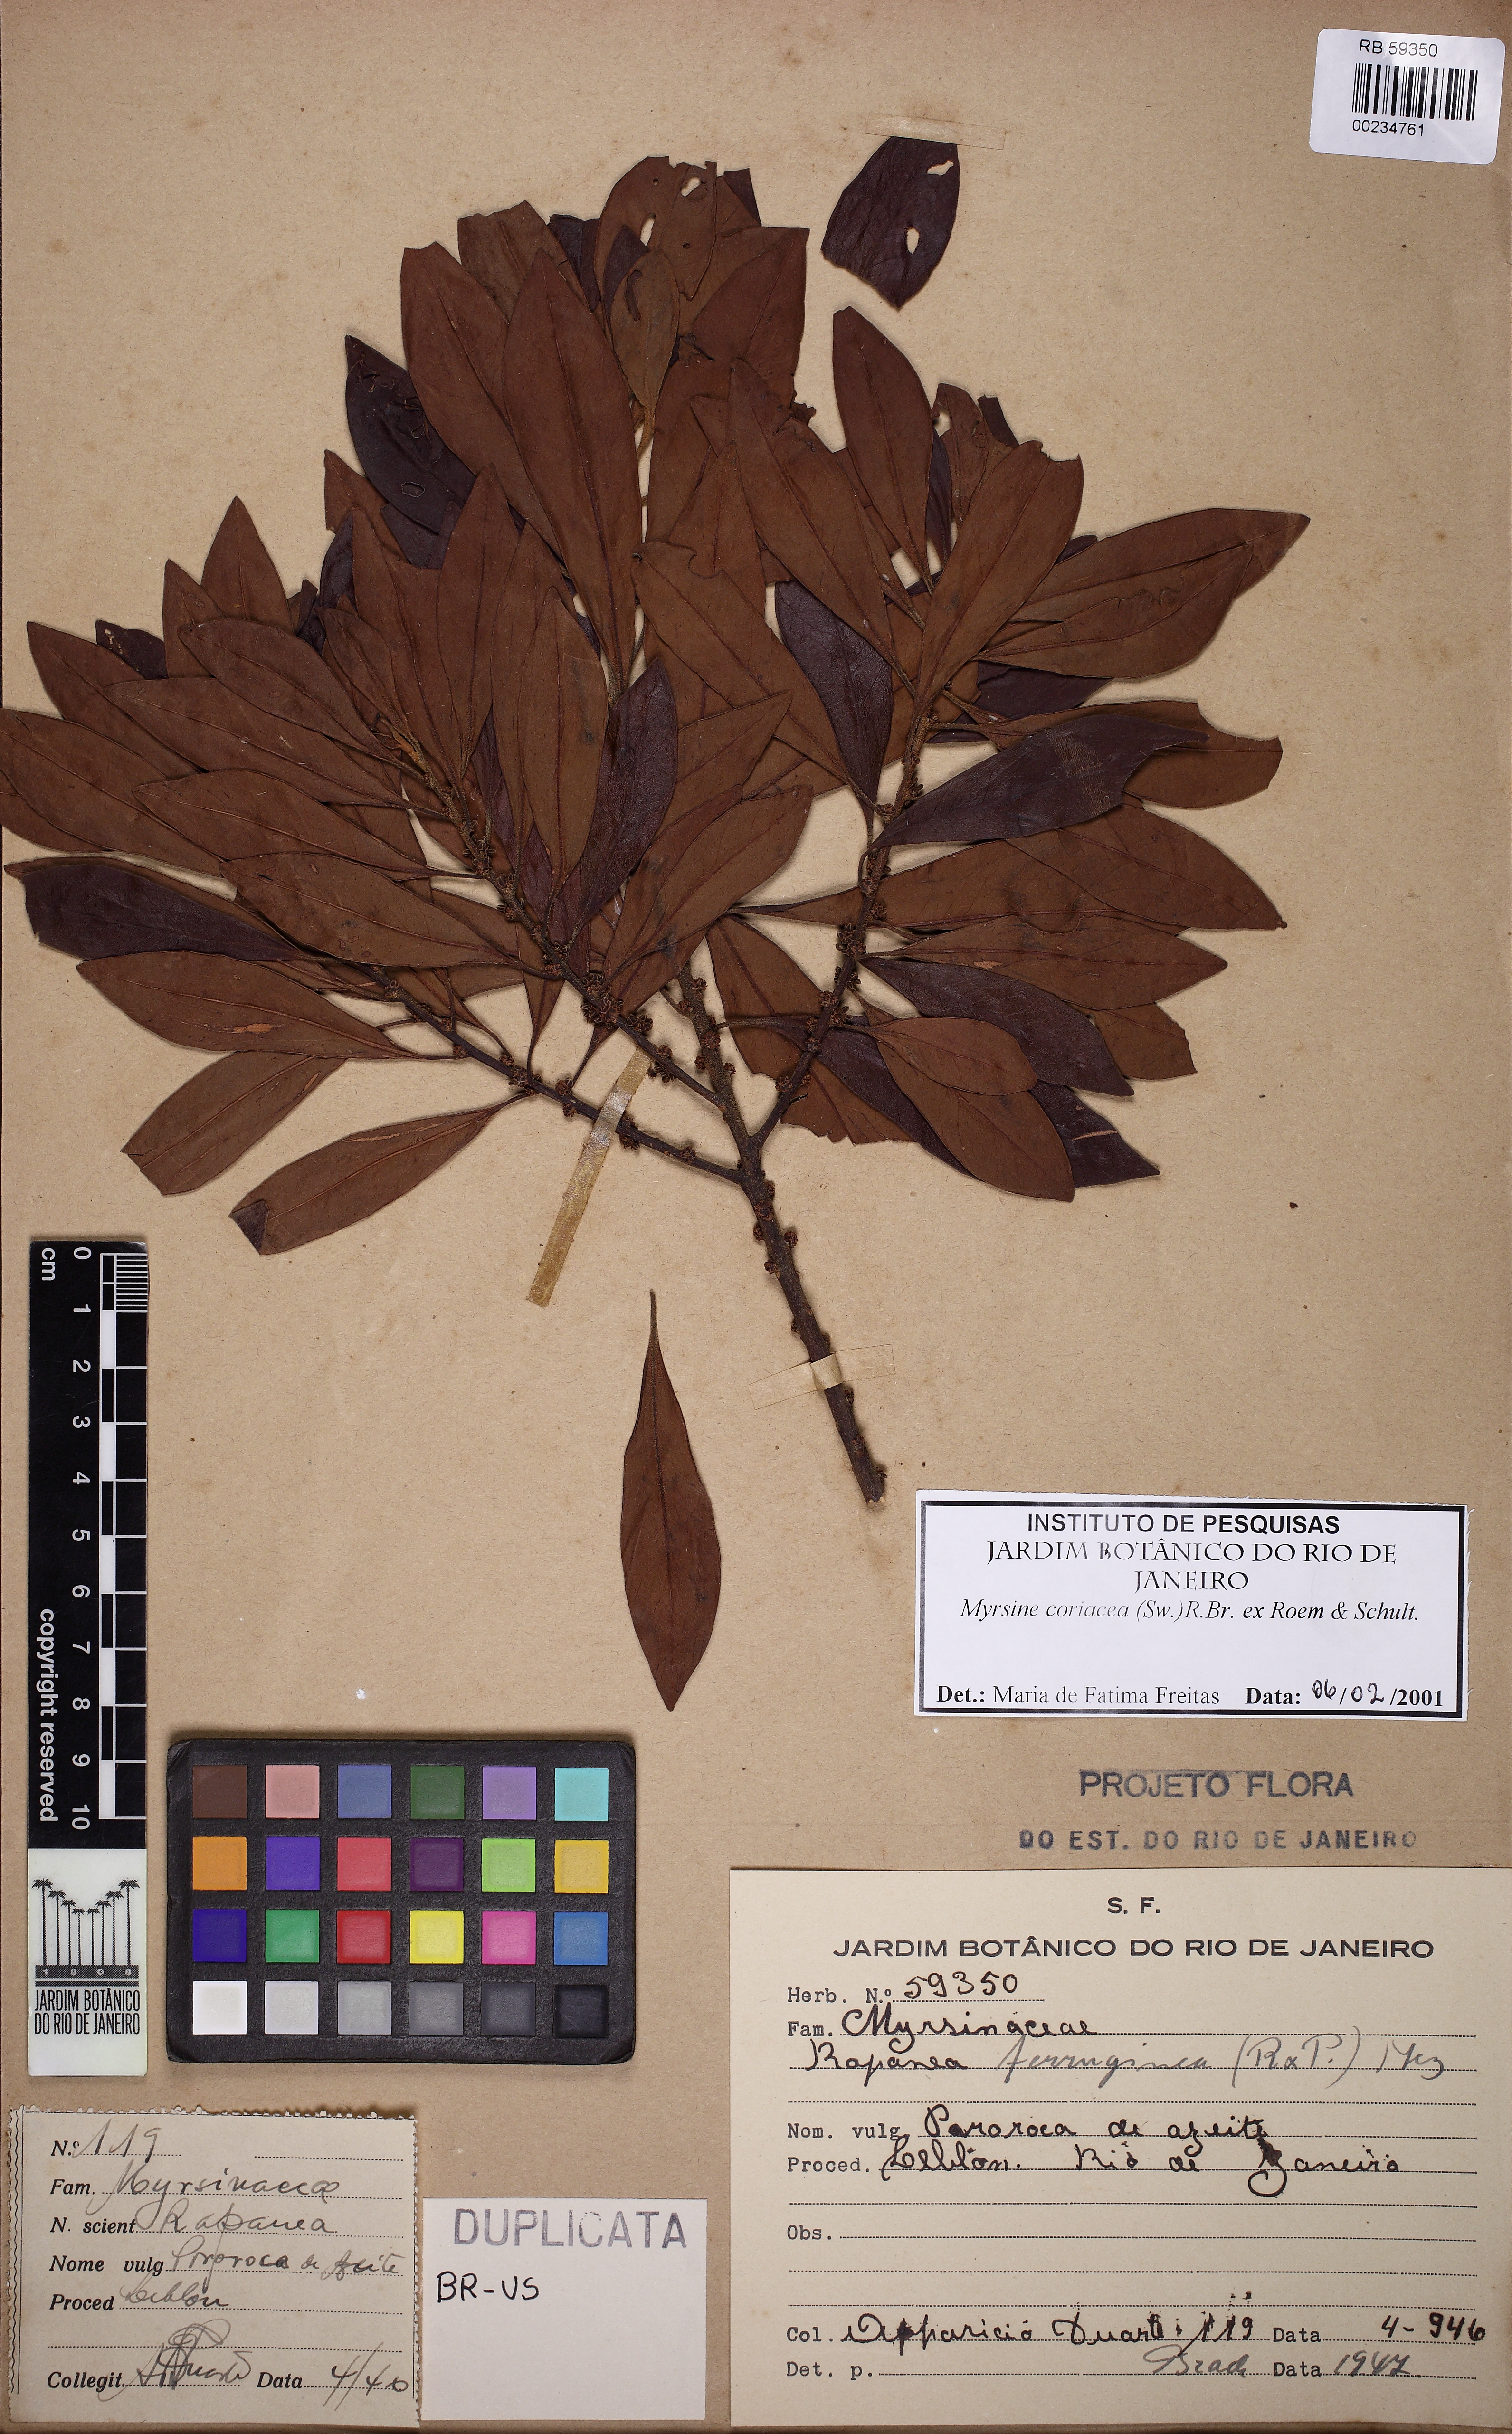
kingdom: Plantae
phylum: Tracheophyta
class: Magnoliopsida
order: Ericales
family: Primulaceae
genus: Myrsine
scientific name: Myrsine coriacea
